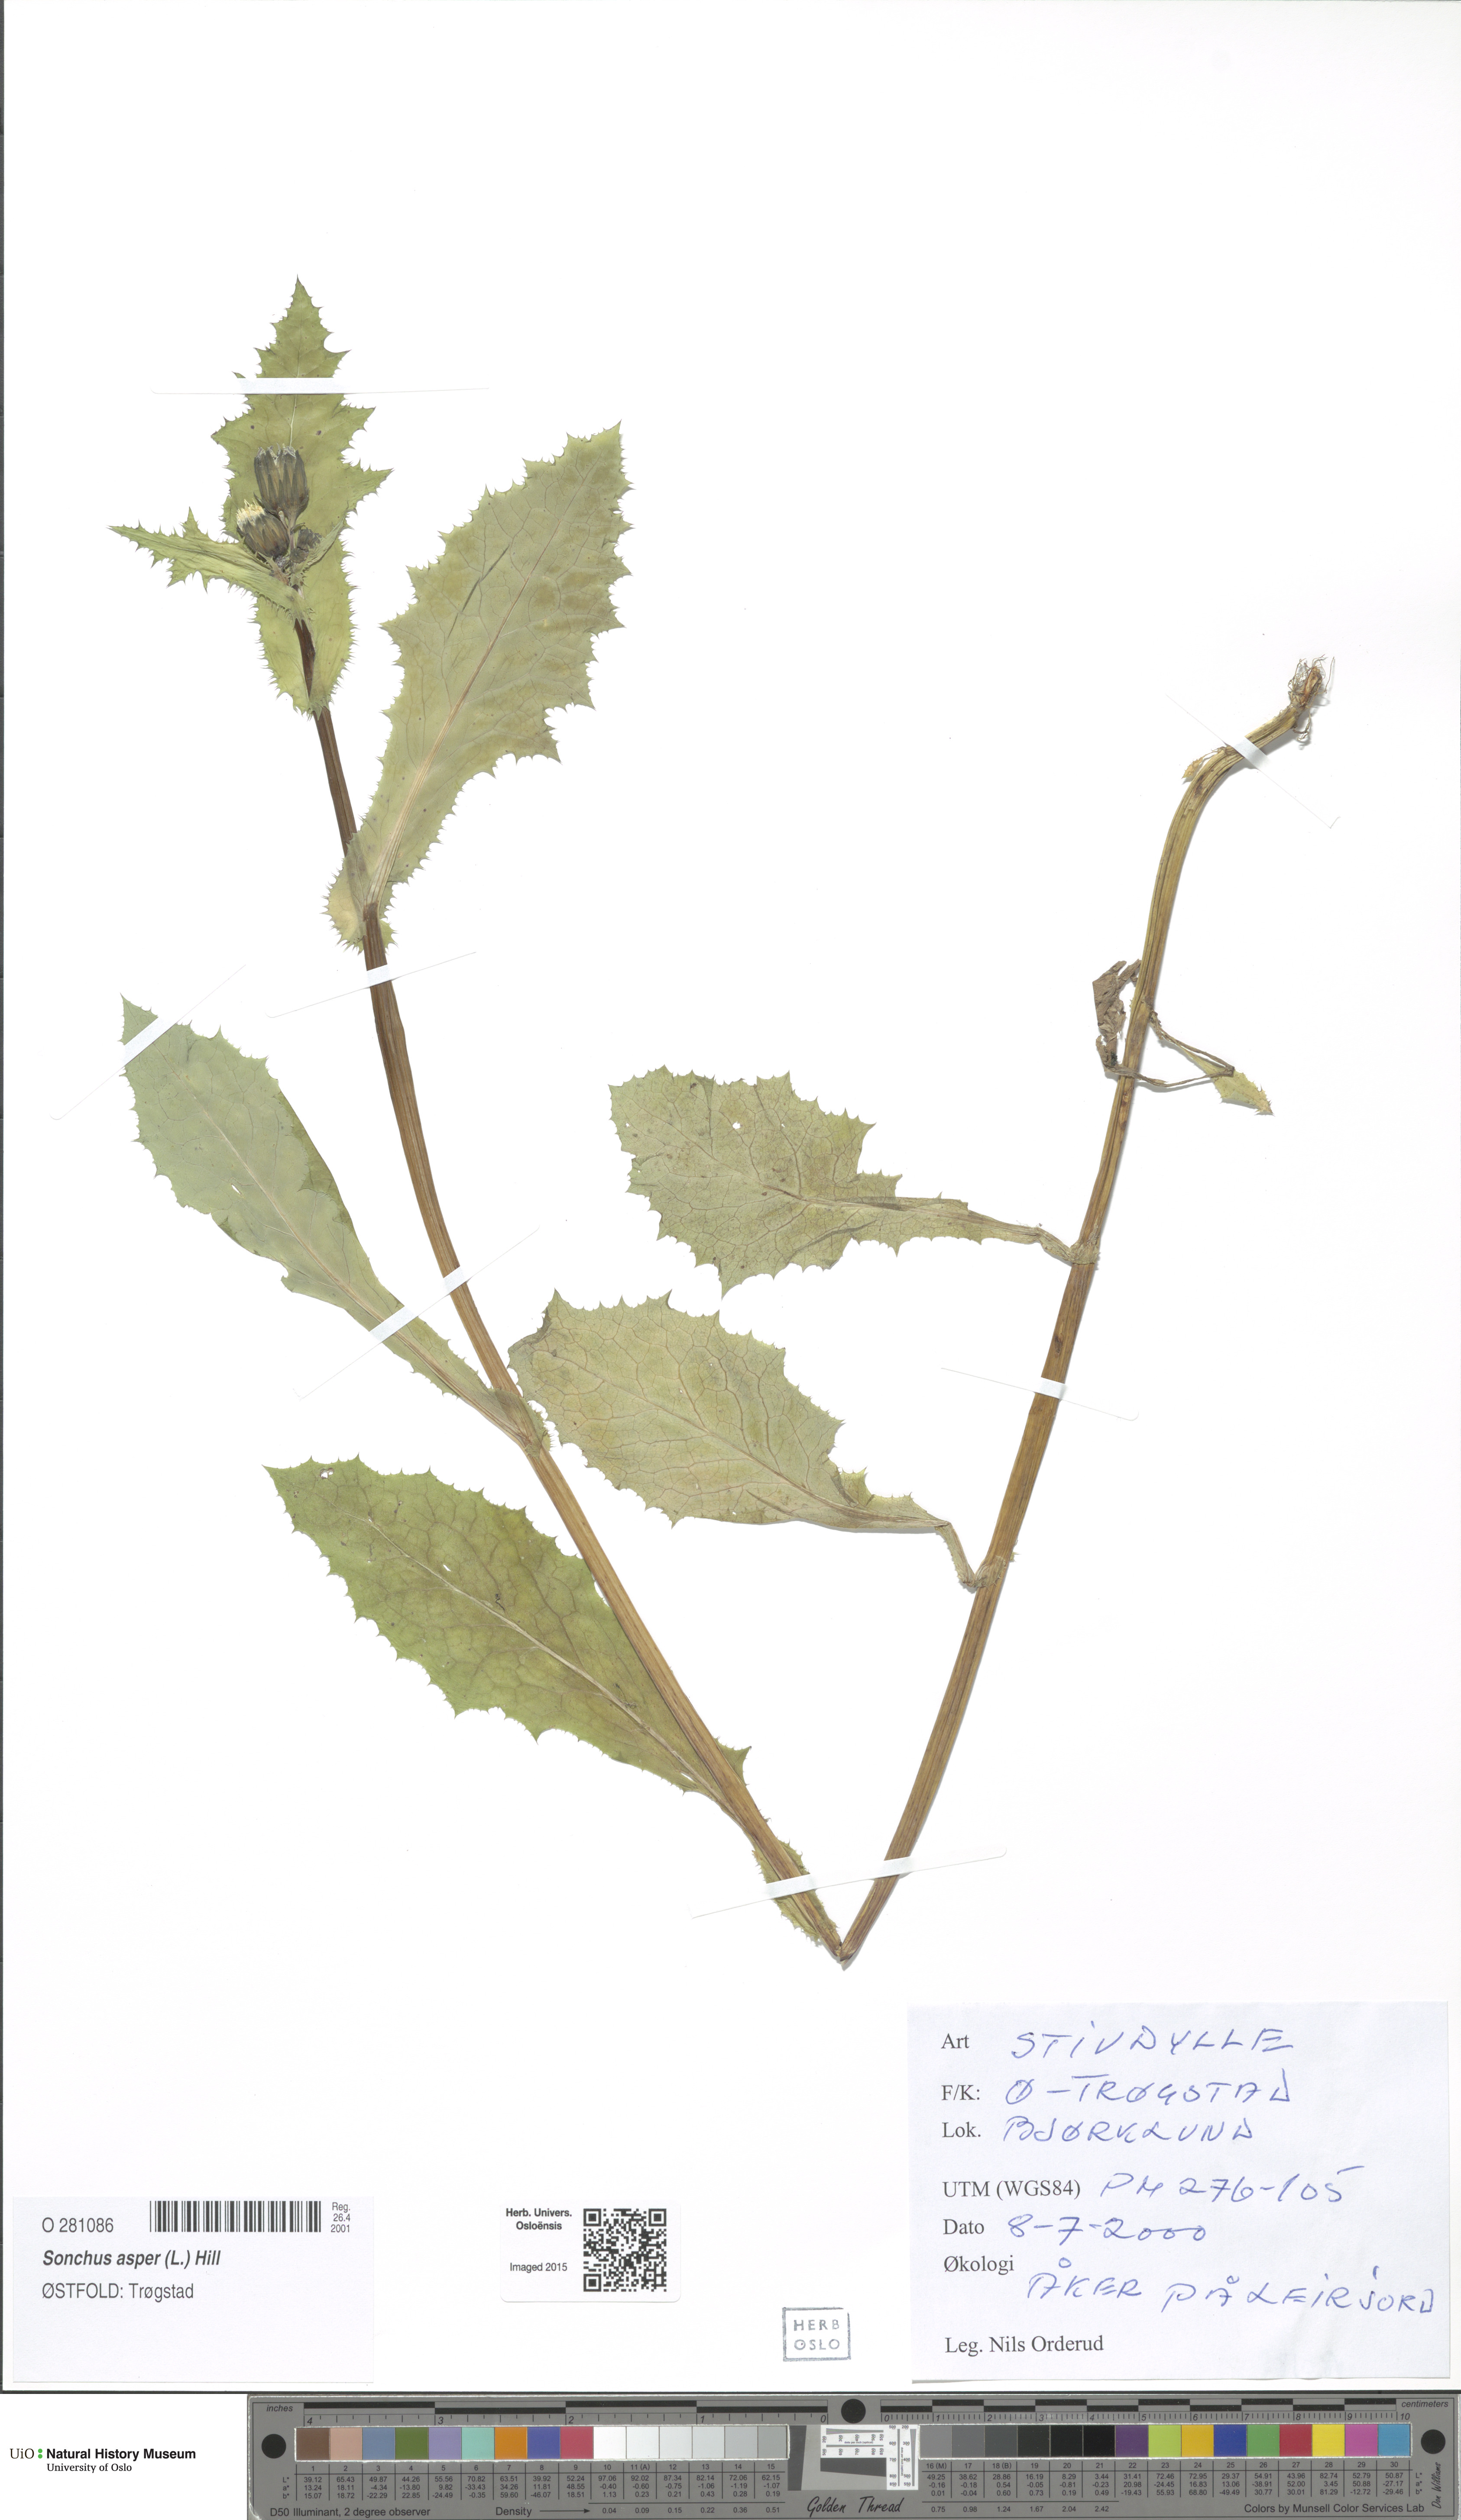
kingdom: Plantae
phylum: Tracheophyta
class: Magnoliopsida
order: Asterales
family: Asteraceae
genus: Sonchus
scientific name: Sonchus asper
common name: Prickly sow-thistle
